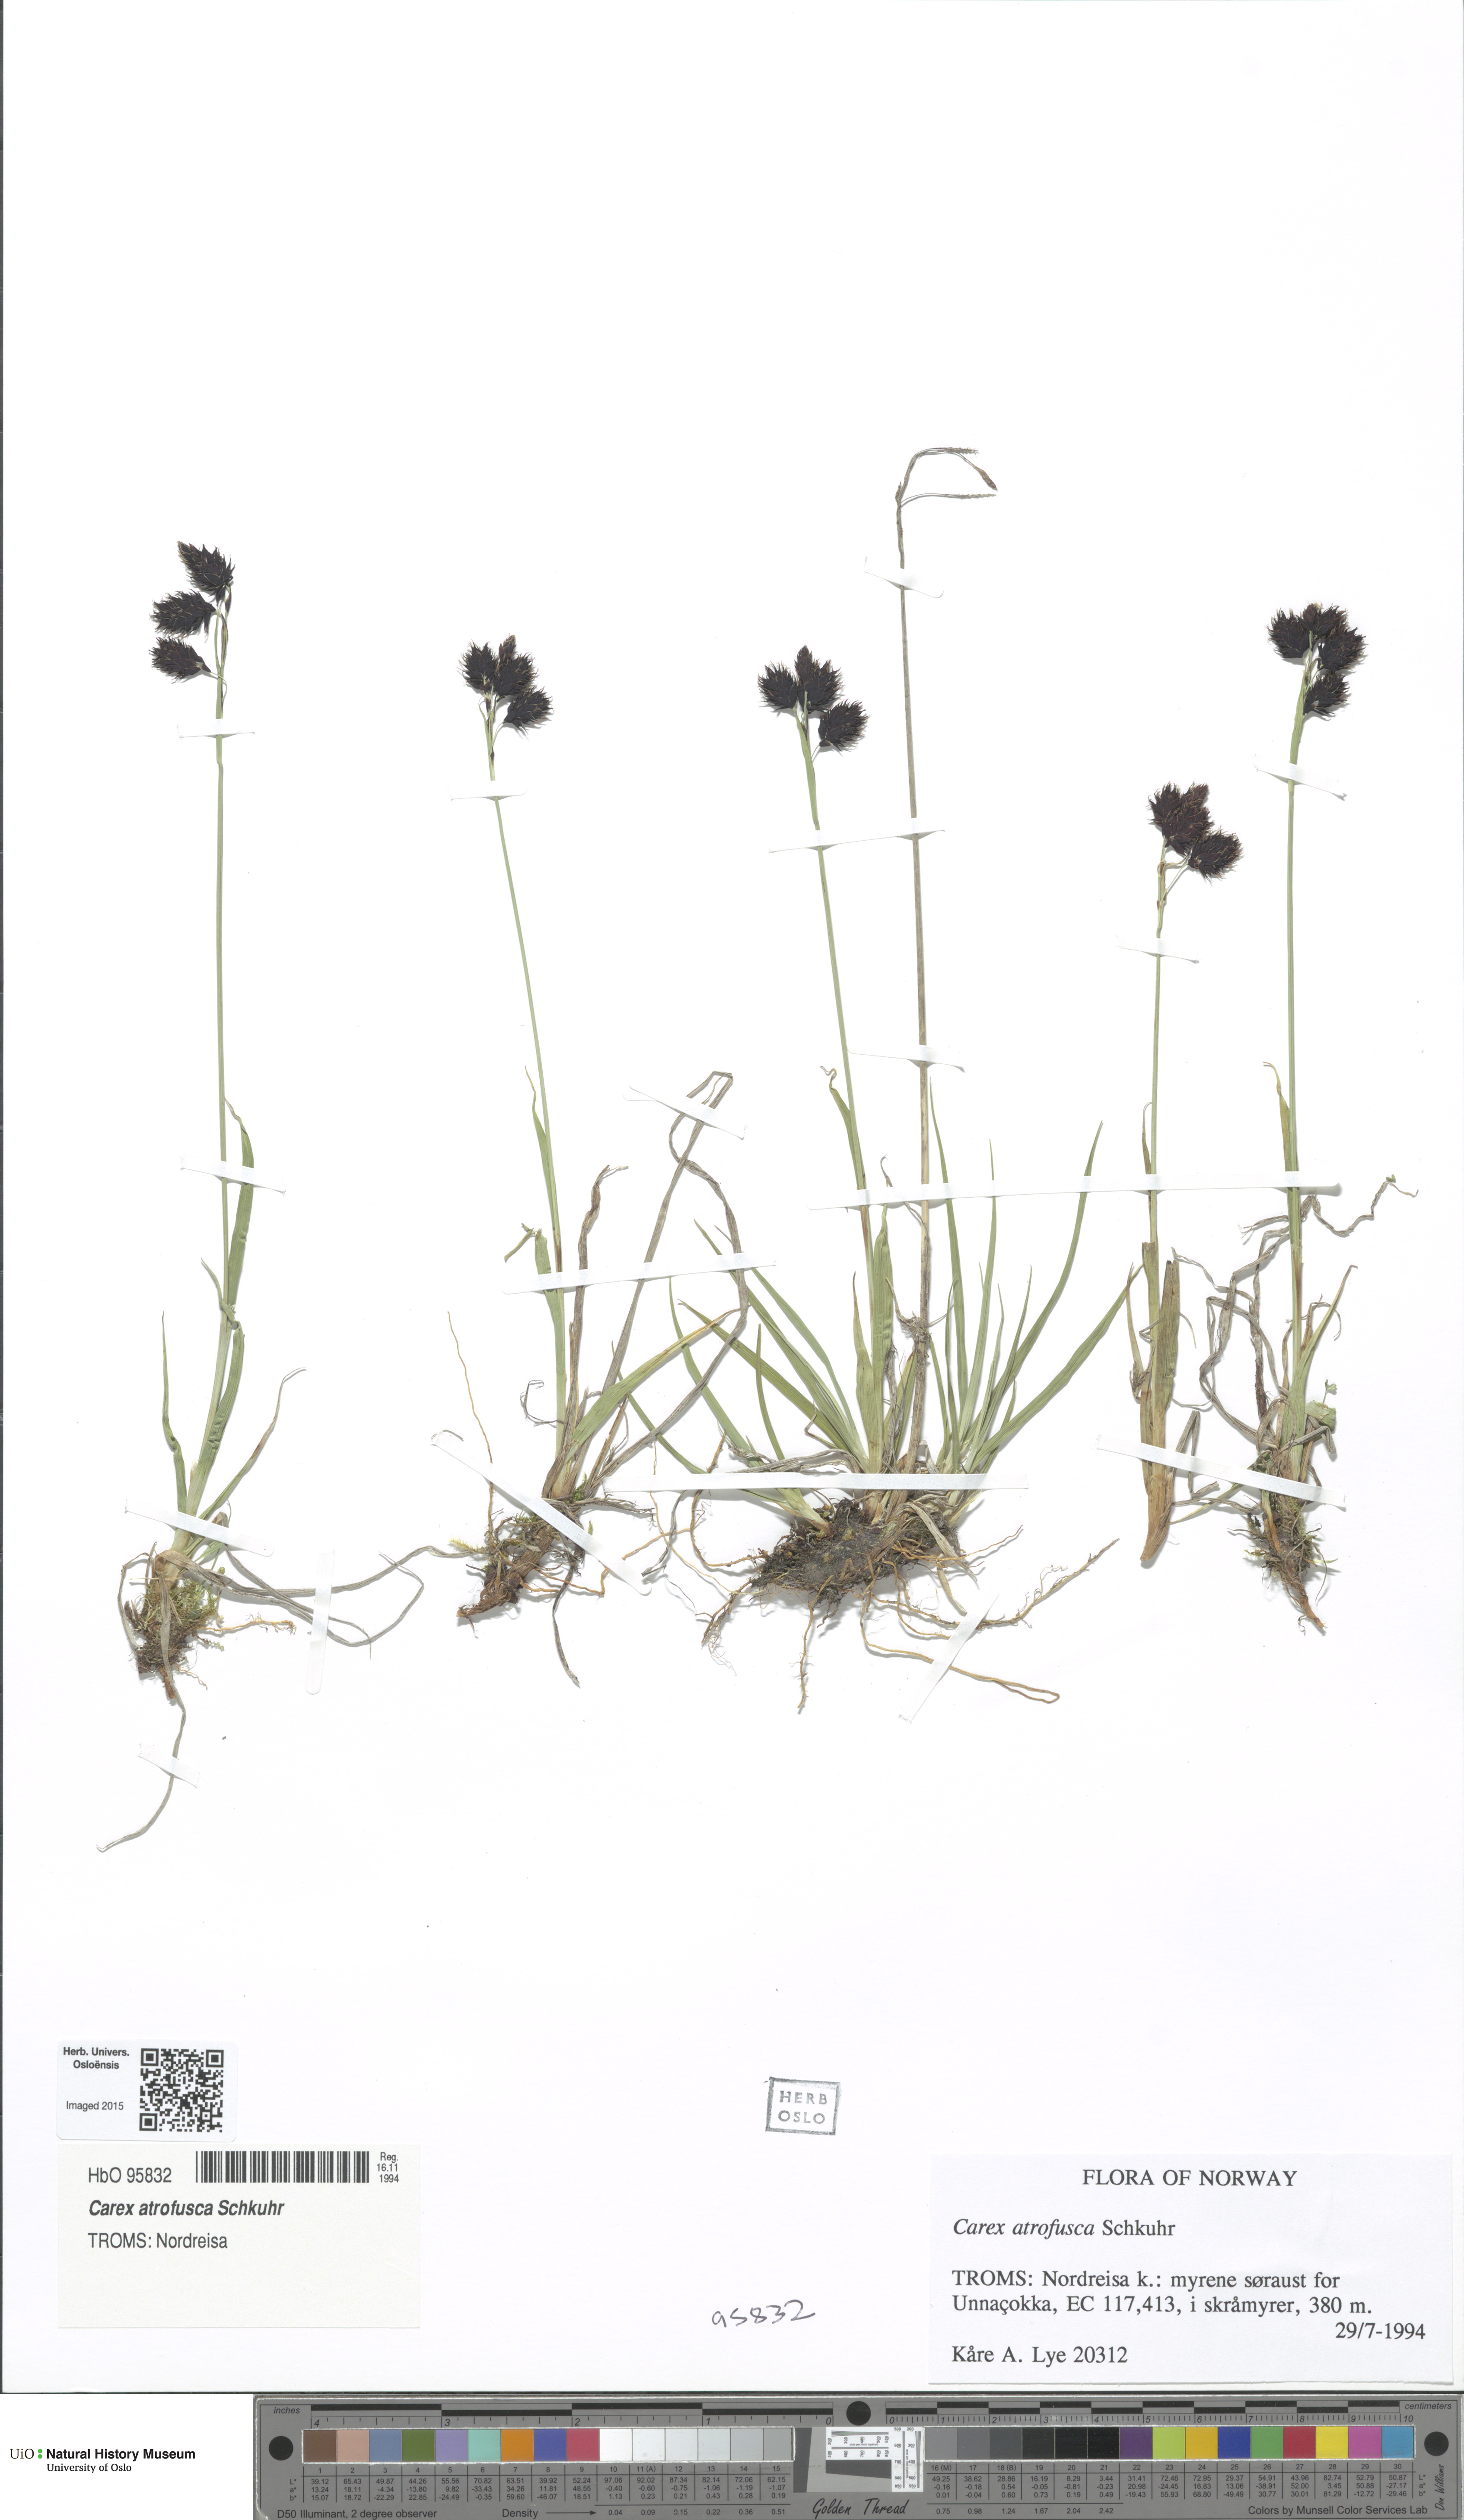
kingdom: Plantae
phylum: Tracheophyta
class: Liliopsida
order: Poales
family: Cyperaceae
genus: Carex
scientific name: Carex atrofusca
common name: Scorched alpine-sedge
